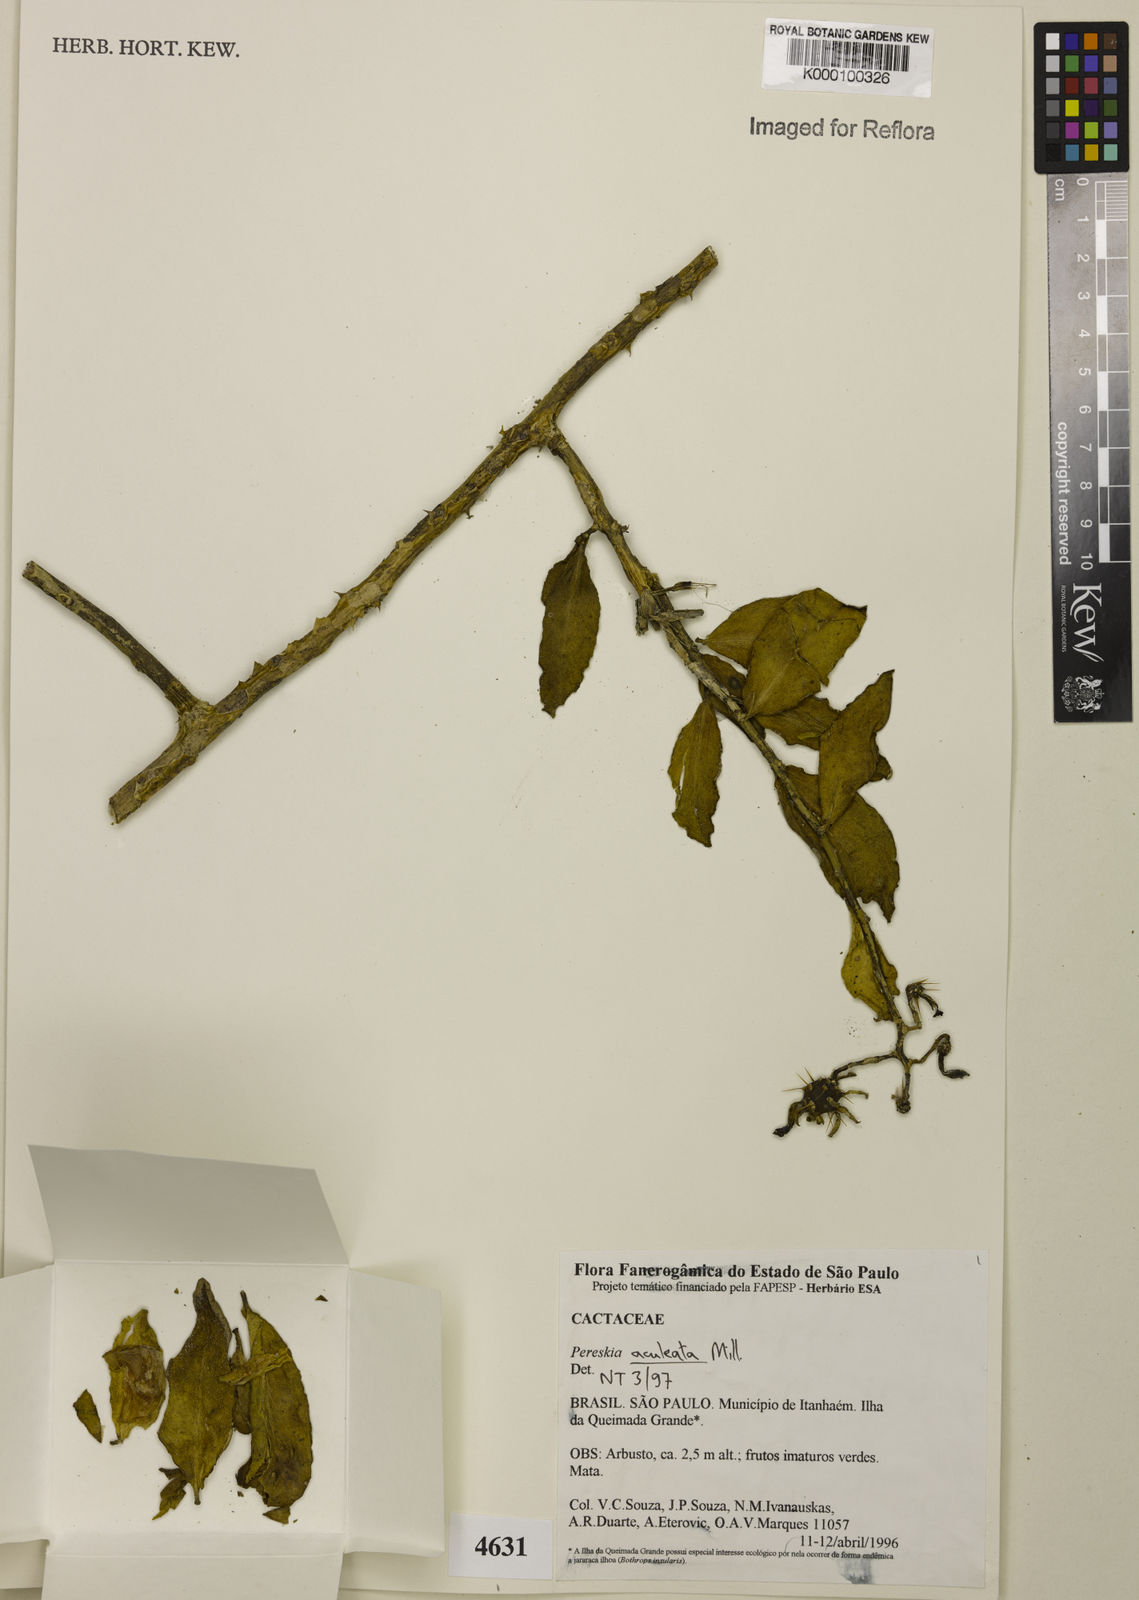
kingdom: Plantae
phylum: Tracheophyta
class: Magnoliopsida
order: Caryophyllales
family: Cactaceae
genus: Pereskia
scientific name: Pereskia aculeata
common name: Barbados gooseberry
